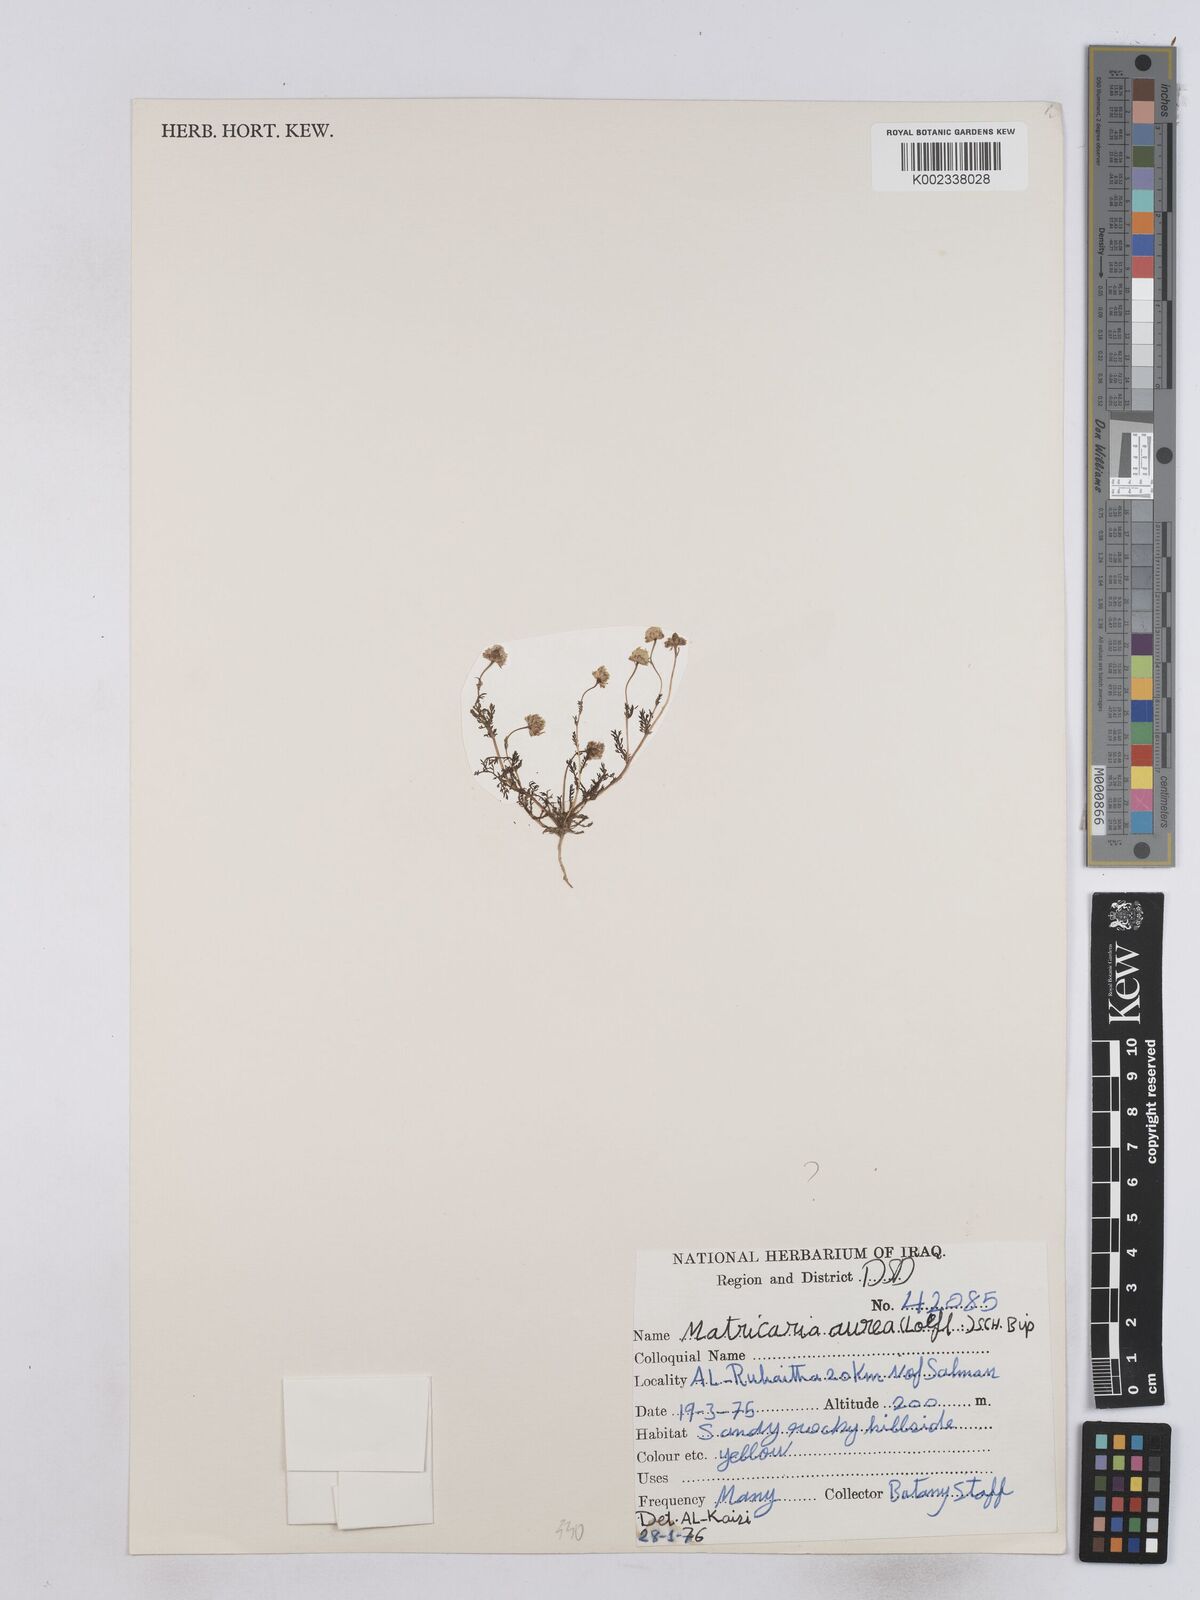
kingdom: Plantae
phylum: Tracheophyta
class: Magnoliopsida
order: Asterales
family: Asteraceae
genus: Matricaria
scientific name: Matricaria aurea
